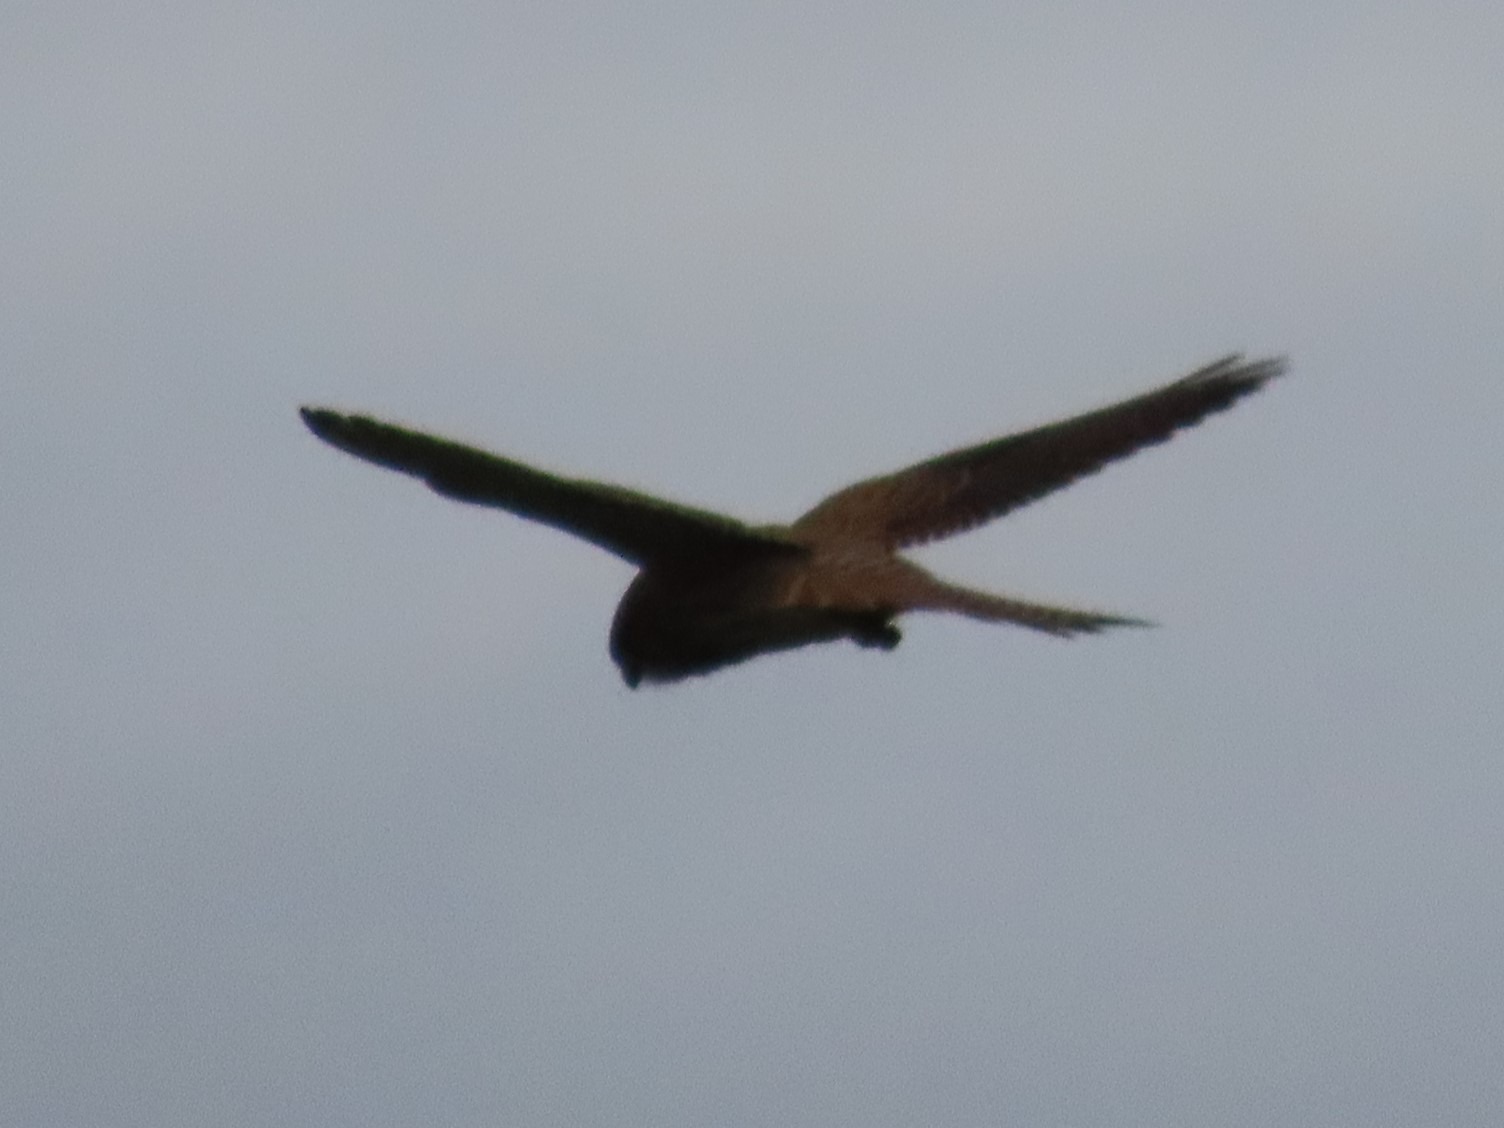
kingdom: Animalia
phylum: Chordata
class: Aves
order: Falconiformes
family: Falconidae
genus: Falco
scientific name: Falco tinnunculus
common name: Tårnfalk
